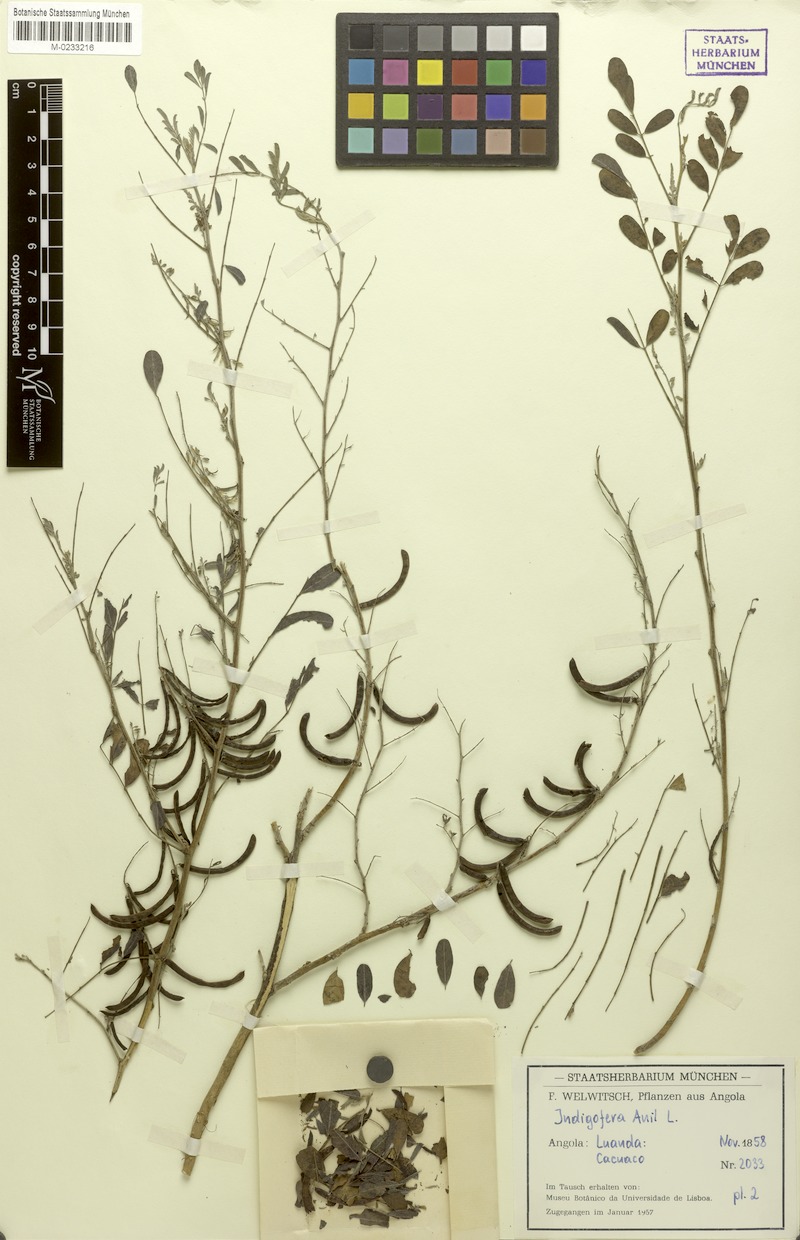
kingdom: Plantae
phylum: Tracheophyta
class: Magnoliopsida
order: Fabales
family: Fabaceae
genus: Indigofera
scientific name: Indigofera tinctoria
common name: True indigo
